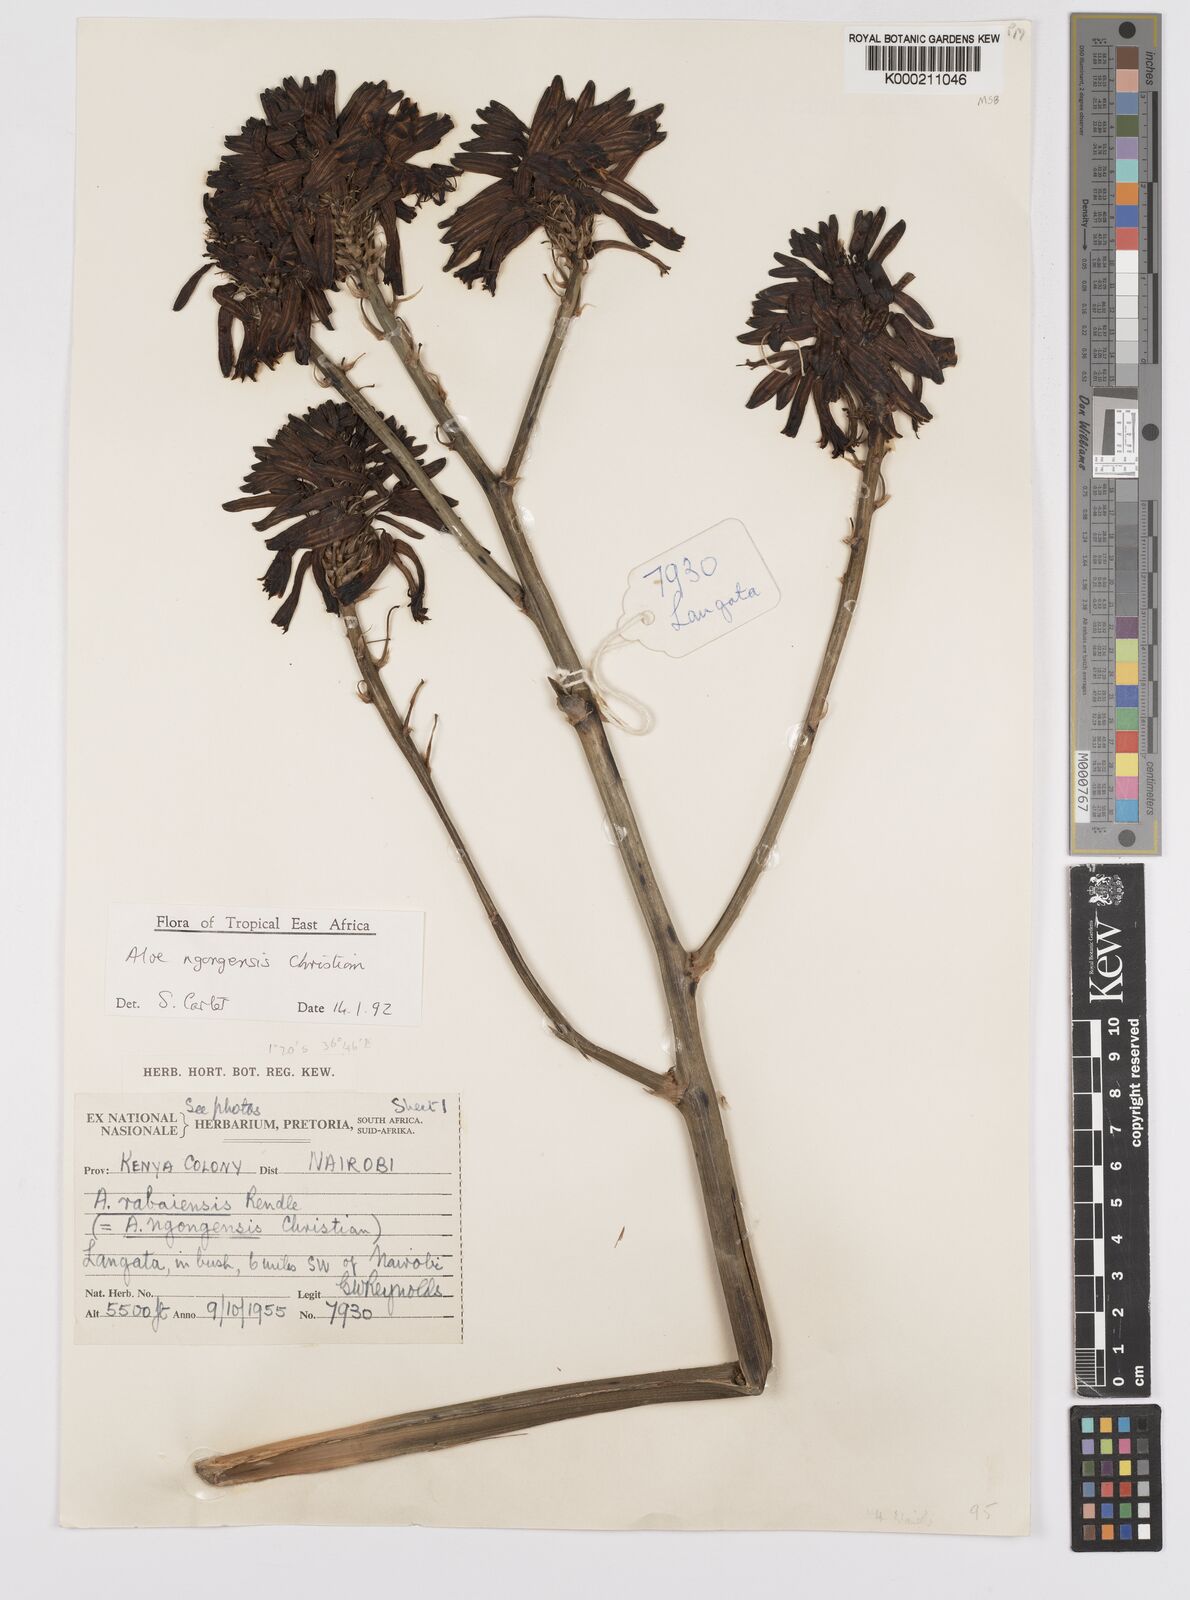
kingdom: Plantae
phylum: Tracheophyta
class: Liliopsida
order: Asparagales
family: Asphodelaceae
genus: Aloe
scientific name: Aloe ngongensis
